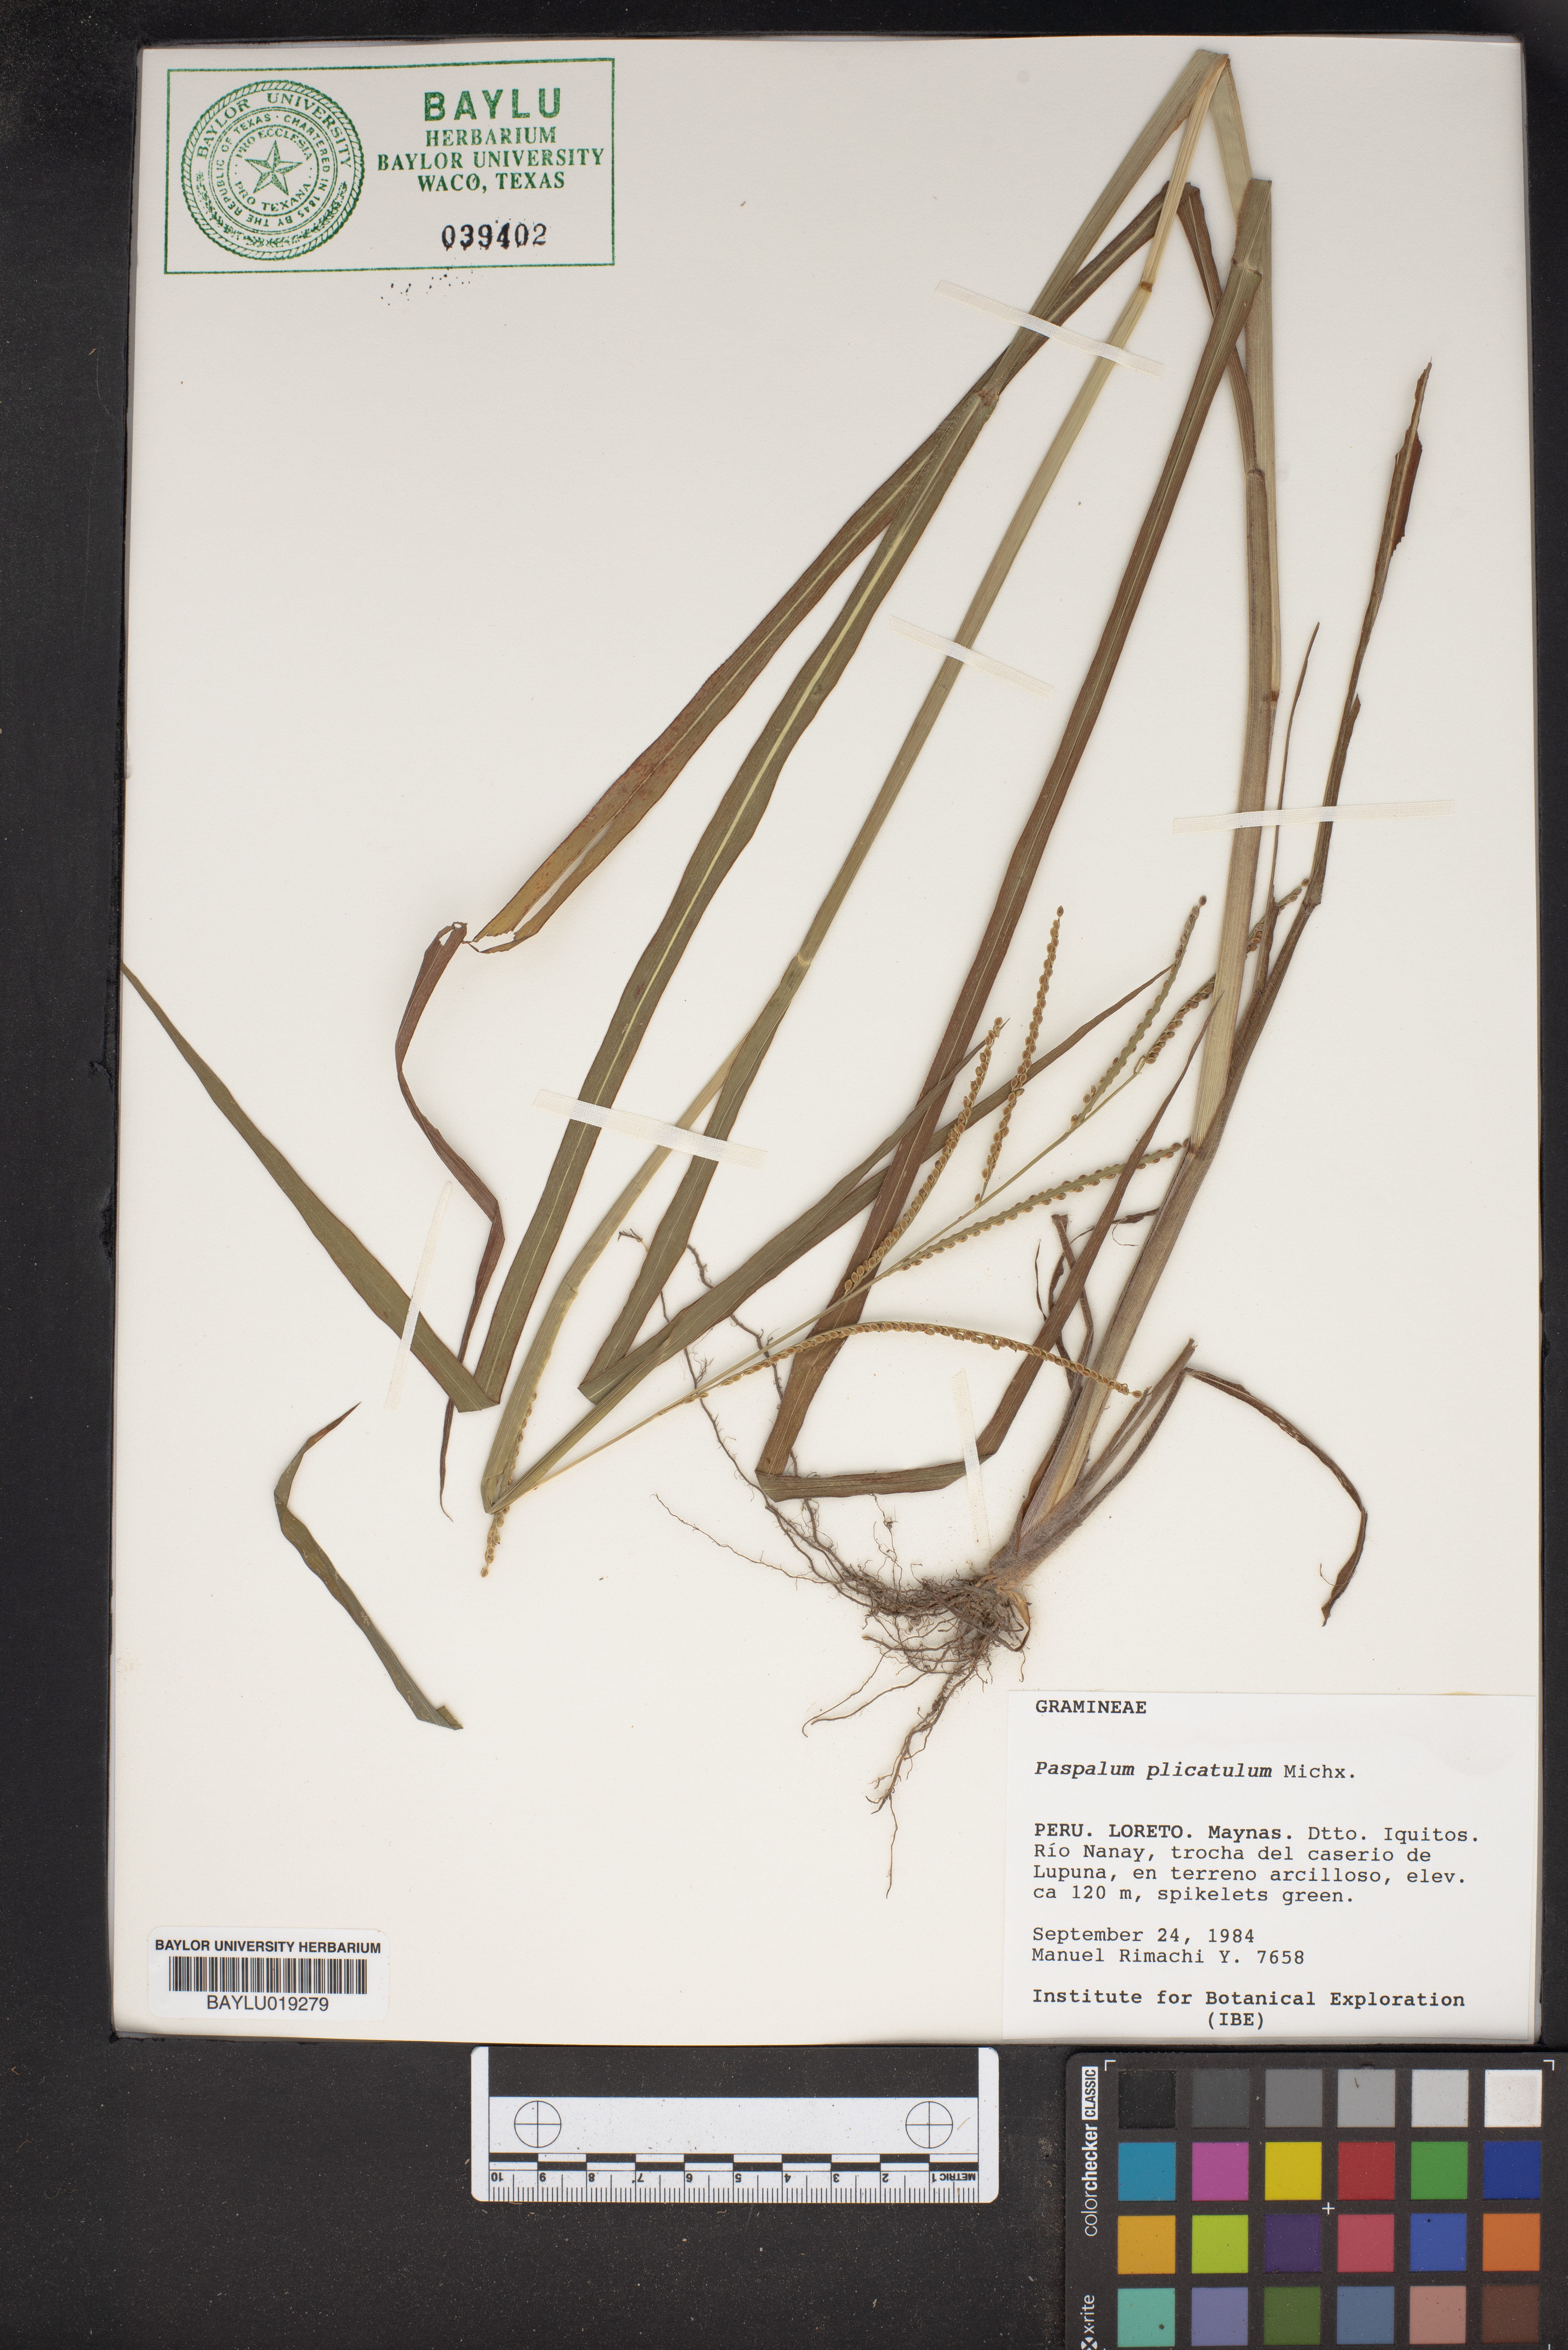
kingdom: Plantae
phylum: Tracheophyta
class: Liliopsida
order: Poales
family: Poaceae
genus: Paspalum
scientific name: Paspalum plicatulum
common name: Top paspalum
